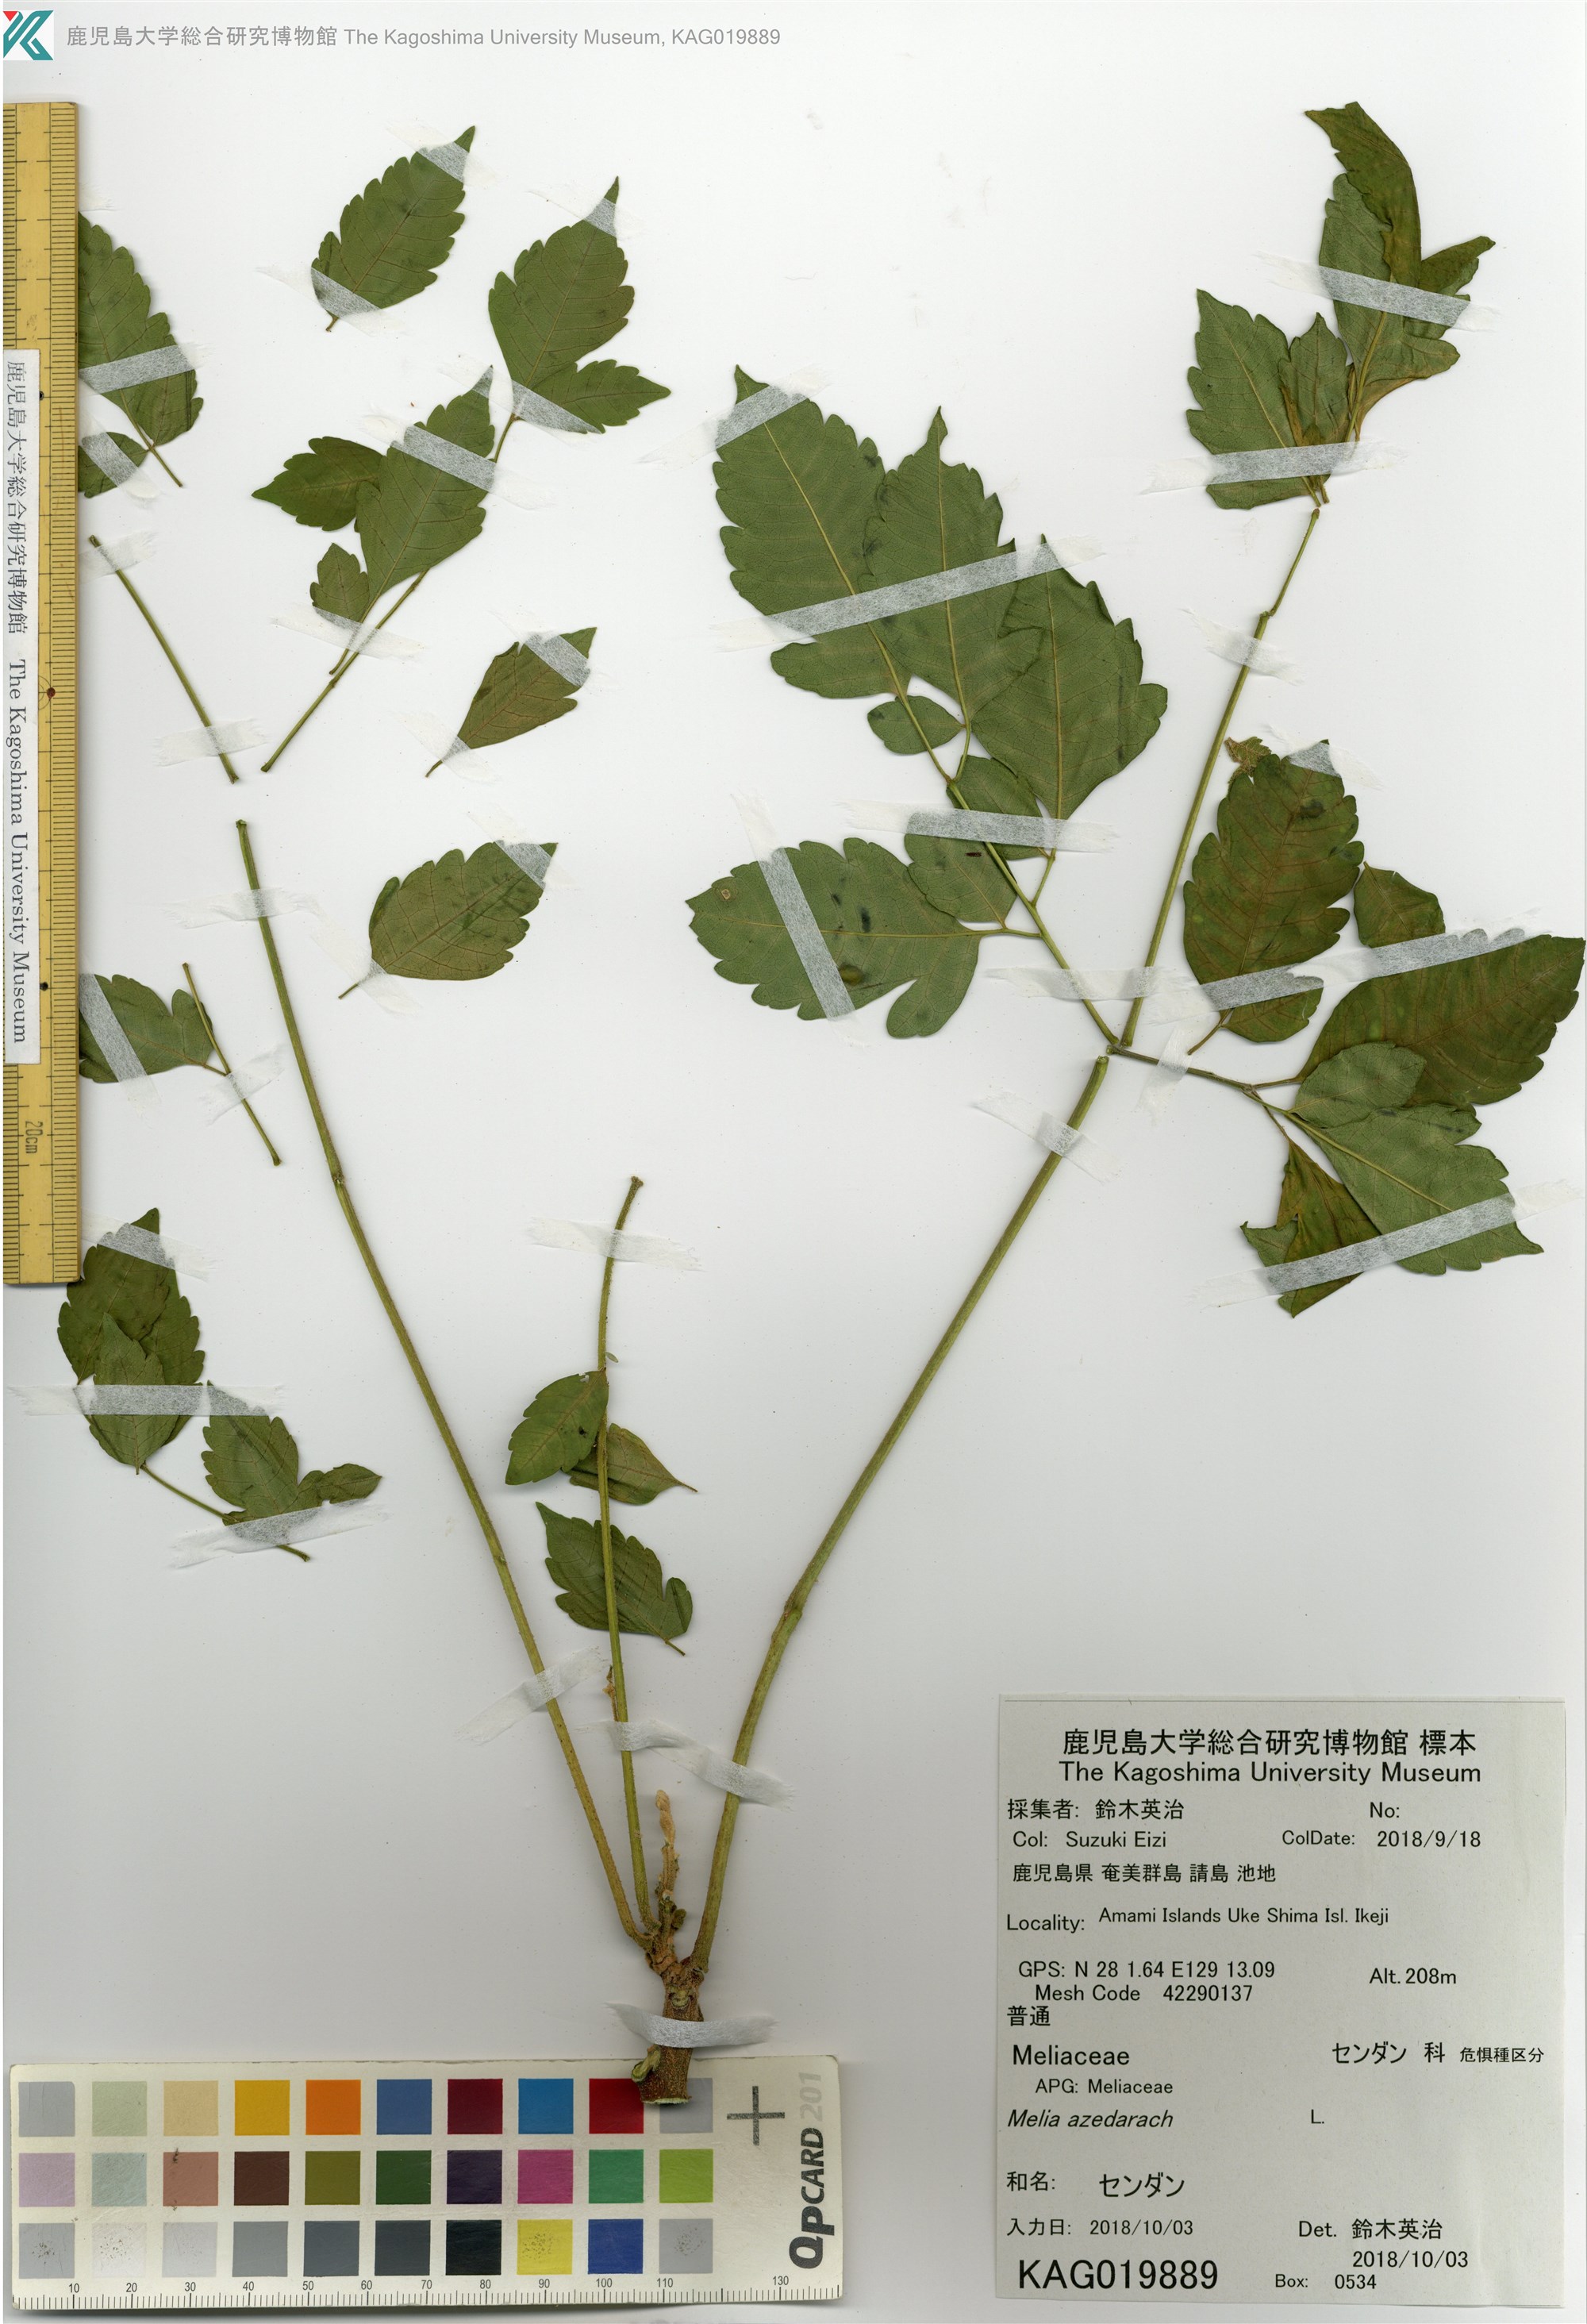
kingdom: Plantae
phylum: Tracheophyta
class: Magnoliopsida
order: Sapindales
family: Meliaceae
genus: Melia
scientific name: Melia azedarach
